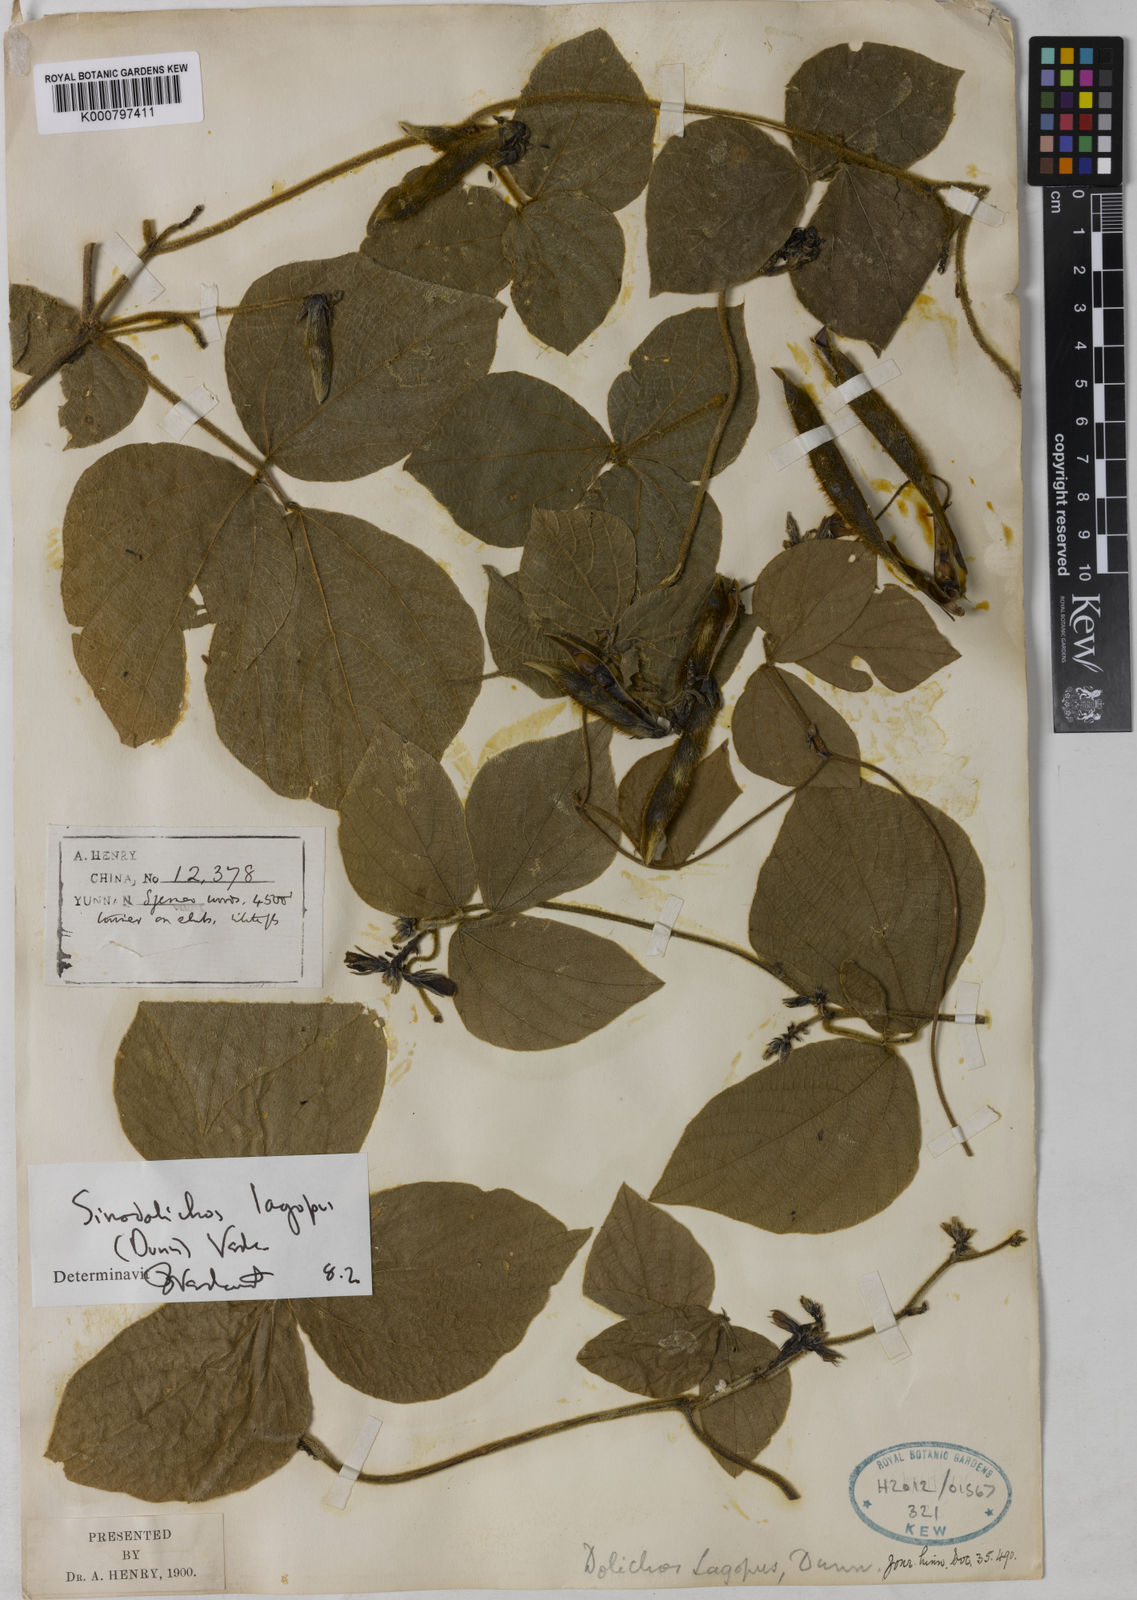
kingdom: Plantae
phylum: Tracheophyta
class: Magnoliopsida
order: Fabales
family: Fabaceae
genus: Sinodolichos
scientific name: Sinodolichos lagopus
